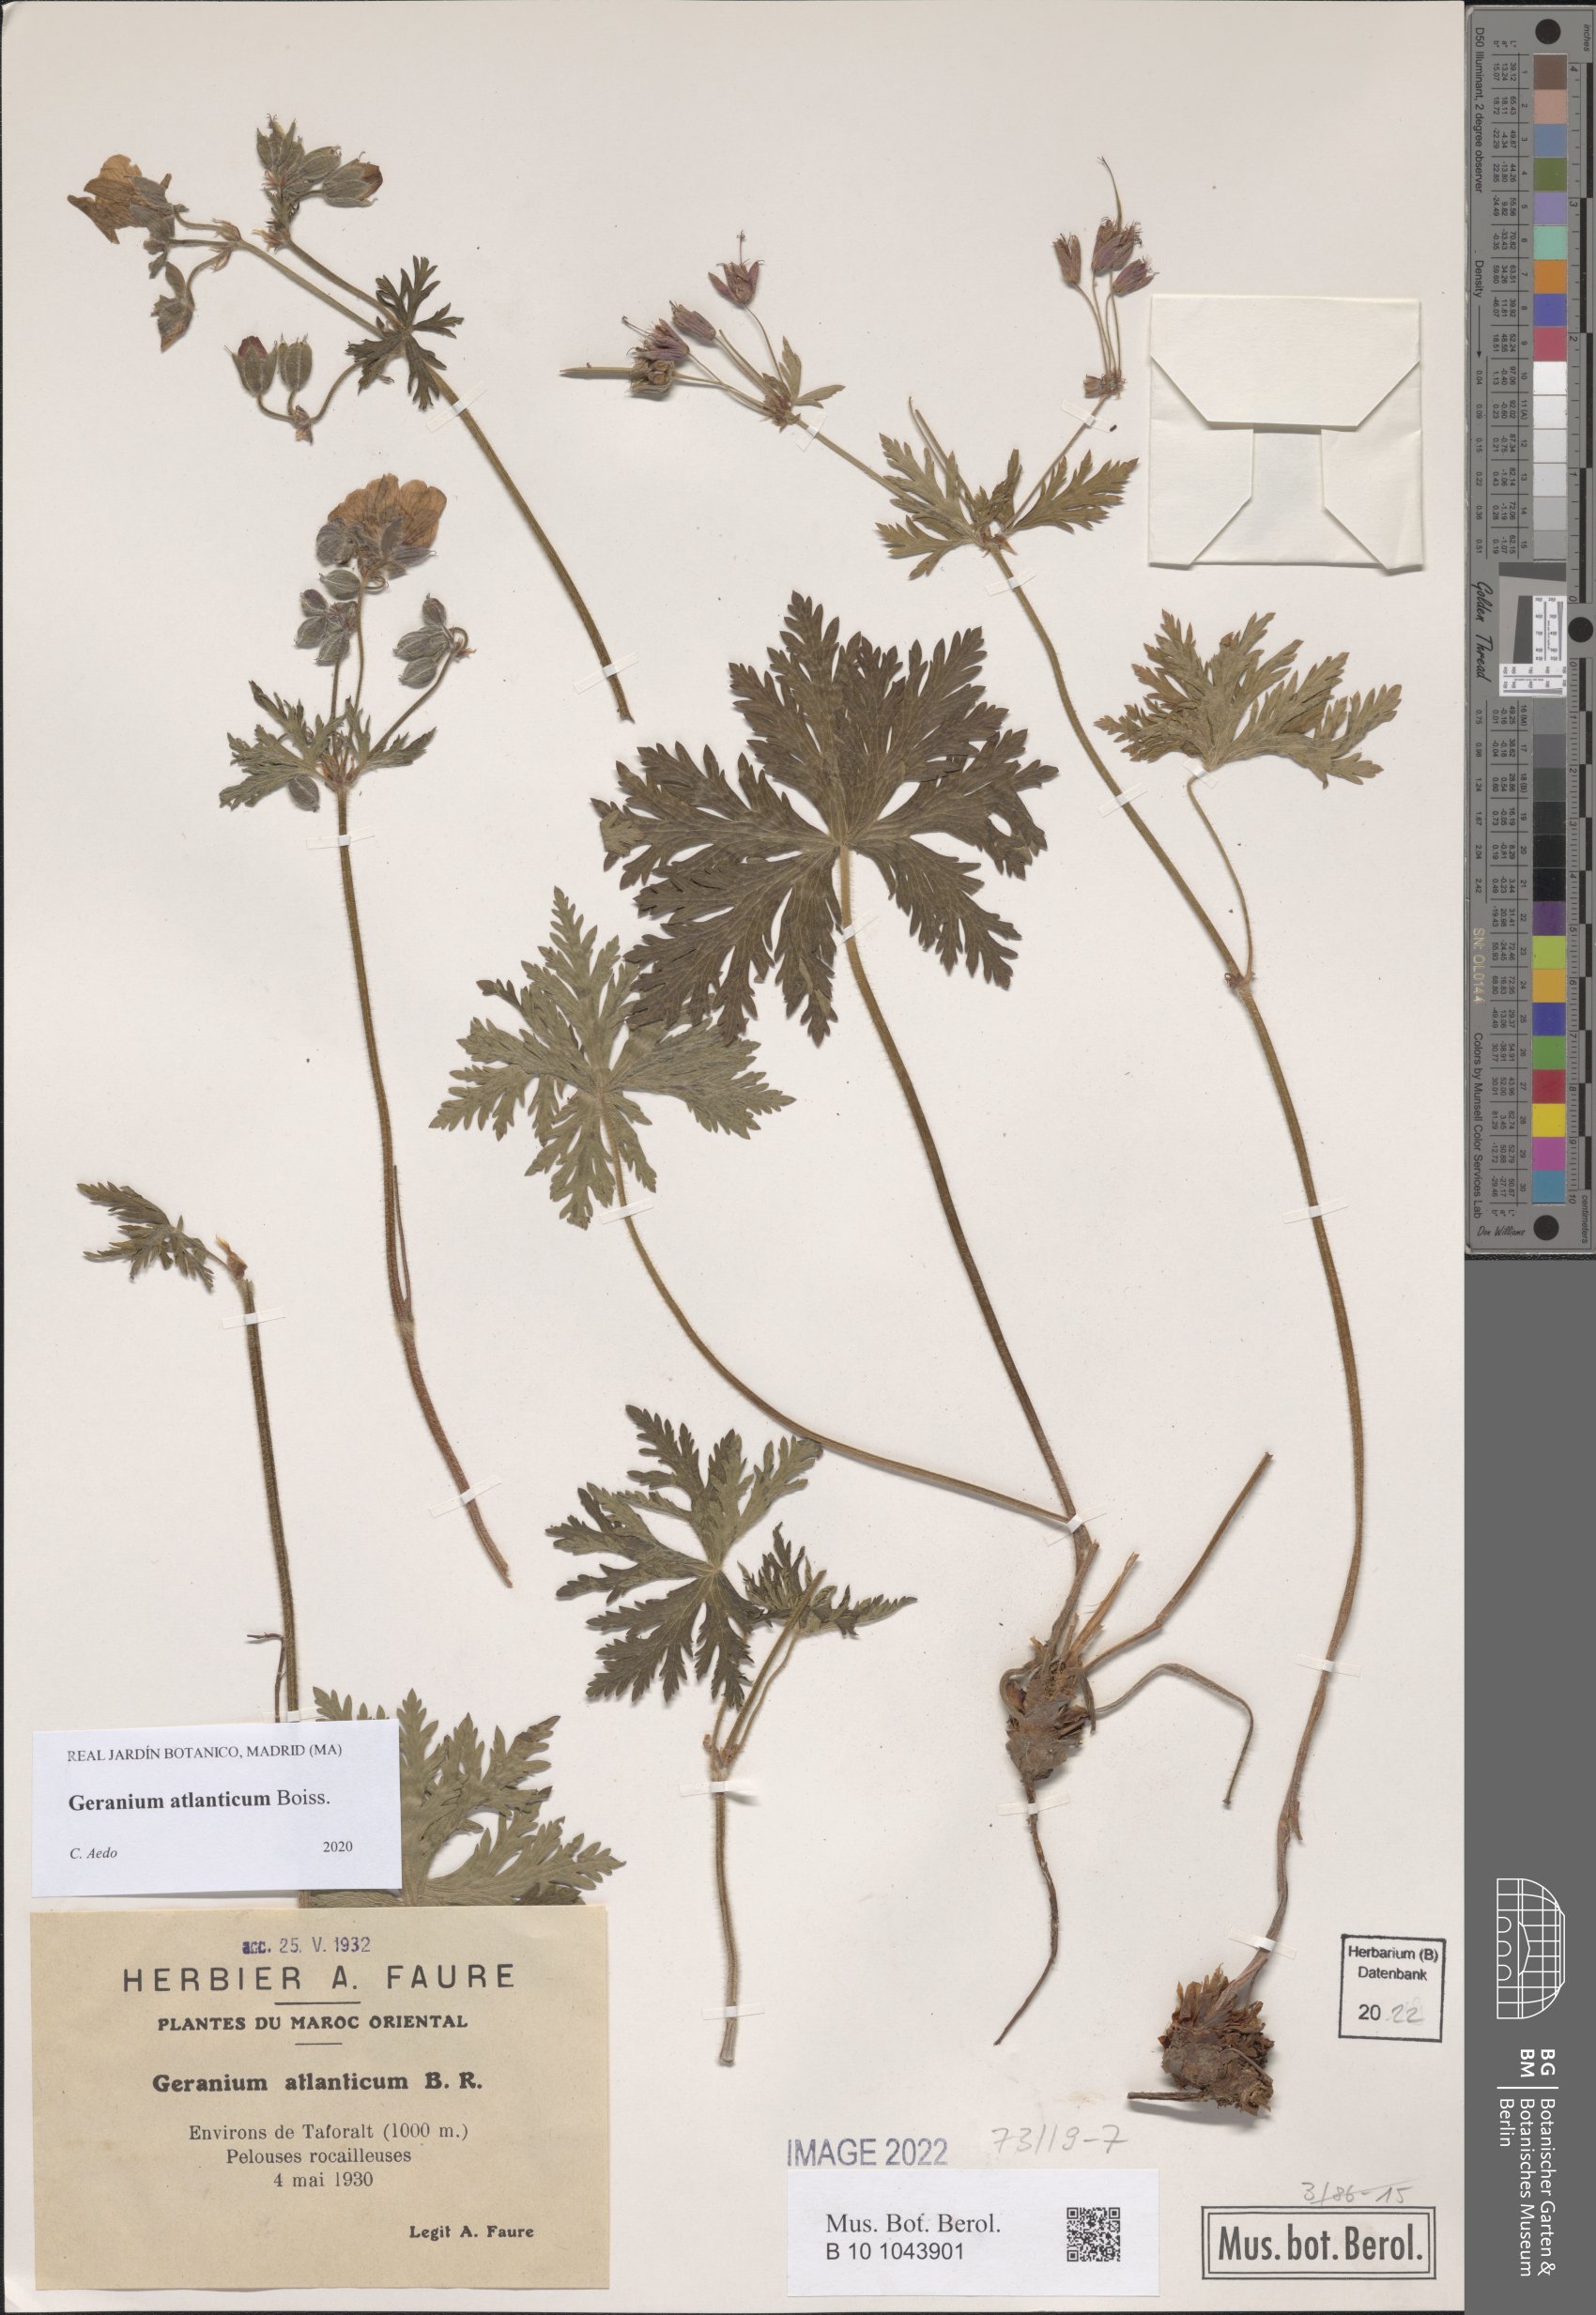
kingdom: Plantae
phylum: Tracheophyta
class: Magnoliopsida
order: Geraniales
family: Geraniaceae
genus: Geranium
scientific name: Geranium atlanticum
